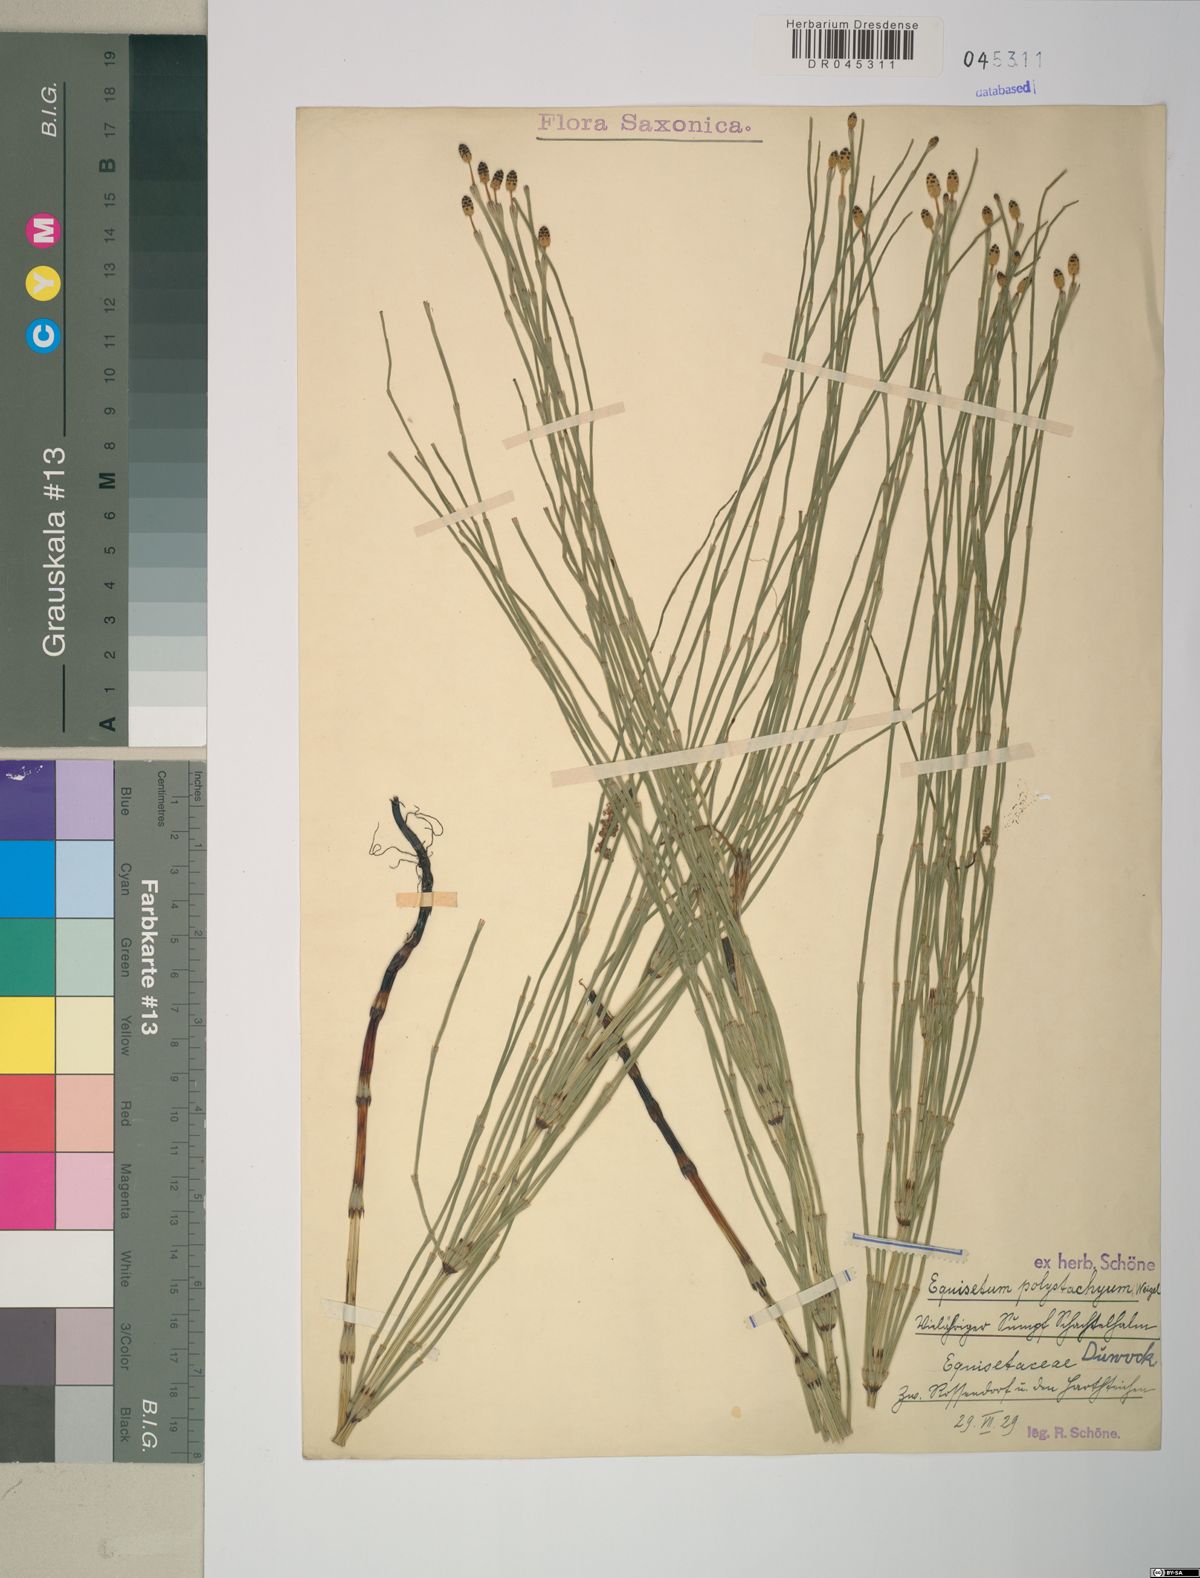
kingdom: Plantae
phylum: Tracheophyta
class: Polypodiopsida
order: Equisetales
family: Equisetaceae
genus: Equisetum
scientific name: Equisetum palustre
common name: Marsh horsetail
